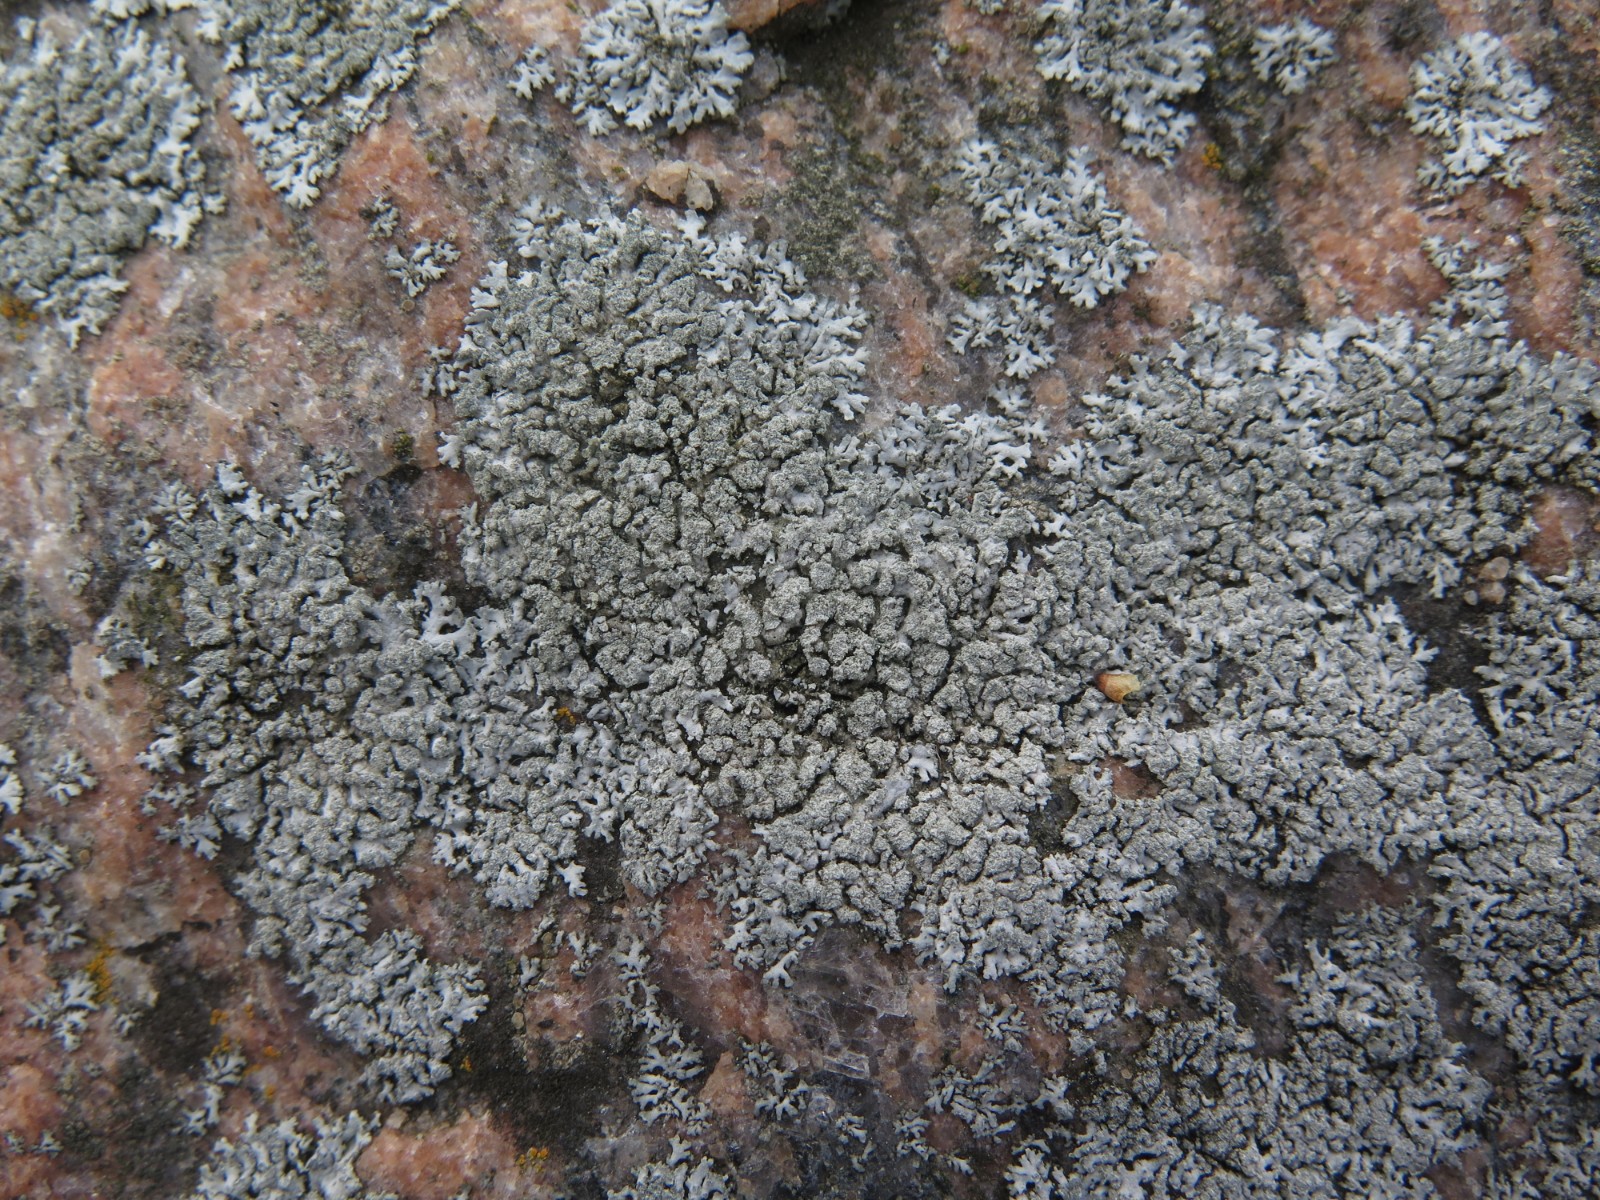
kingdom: Fungi
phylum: Ascomycota
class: Lecanoromycetes
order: Caliciales
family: Physciaceae
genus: Physcia
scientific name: Physcia dubia
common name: fuglestens-rosetlav
